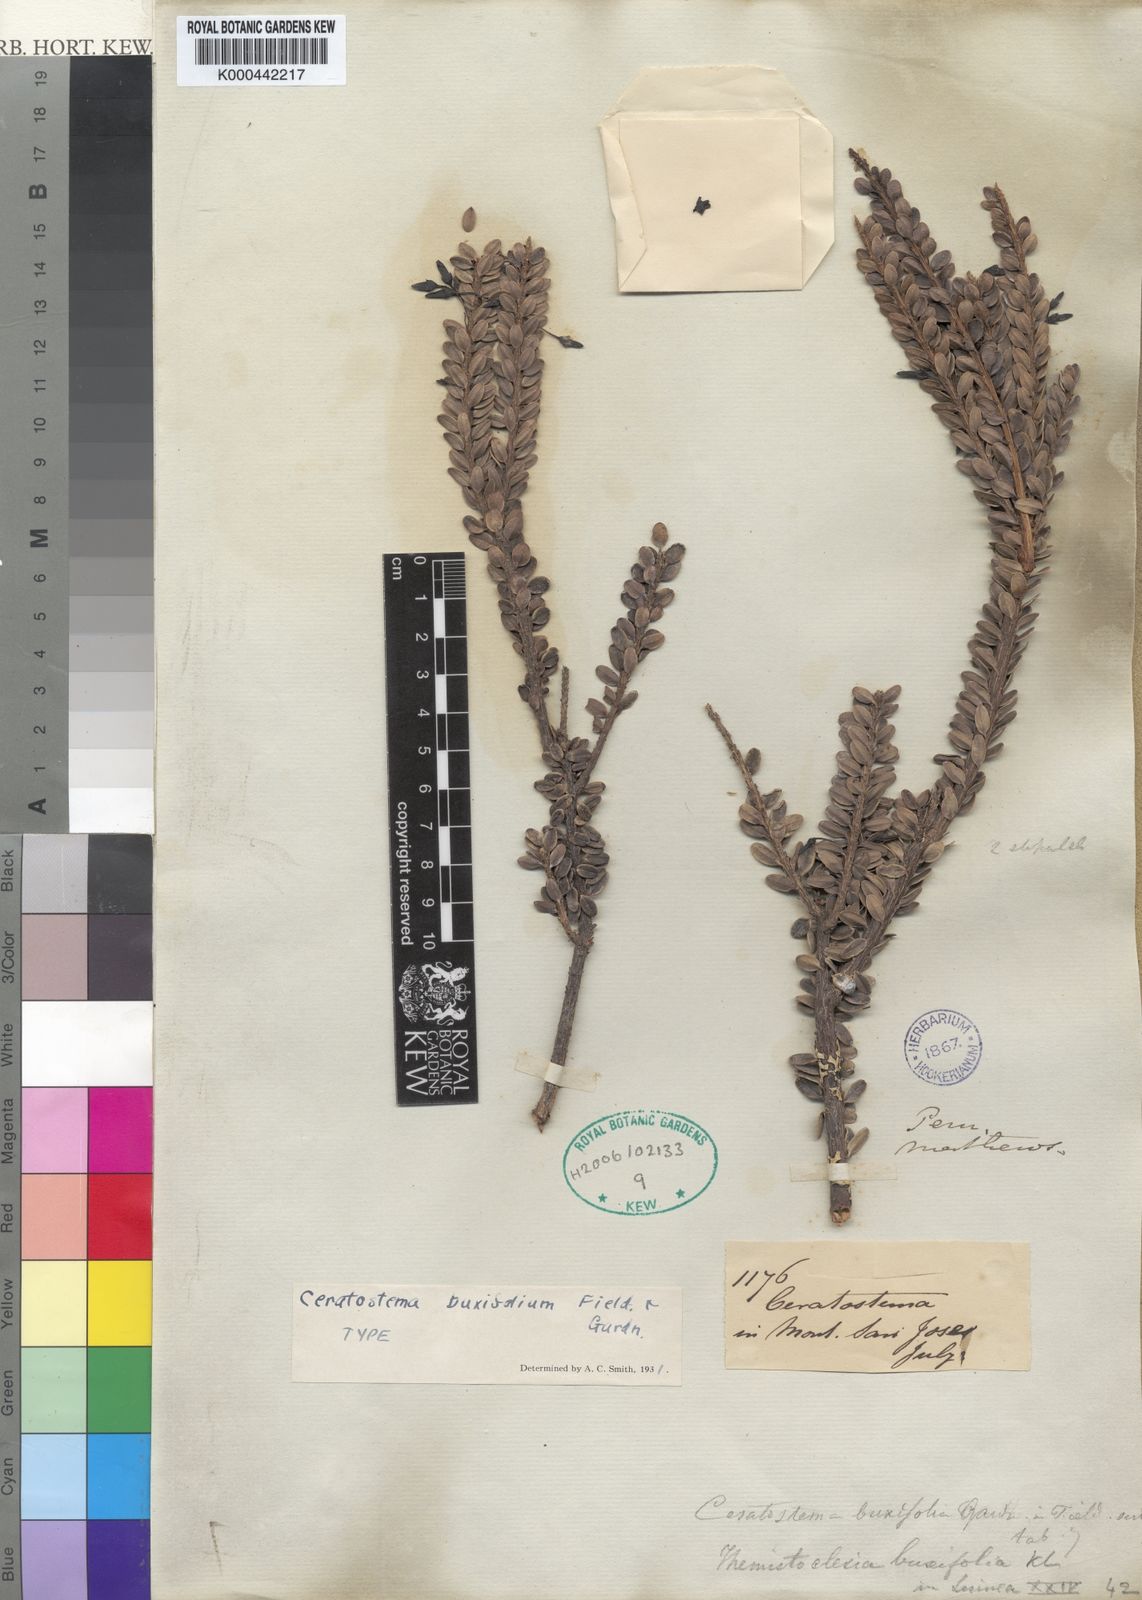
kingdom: Plantae
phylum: Tracheophyta
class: Magnoliopsida
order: Ericales
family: Ericaceae
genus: Demosthenesia
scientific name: Demosthenesia buxifolia
